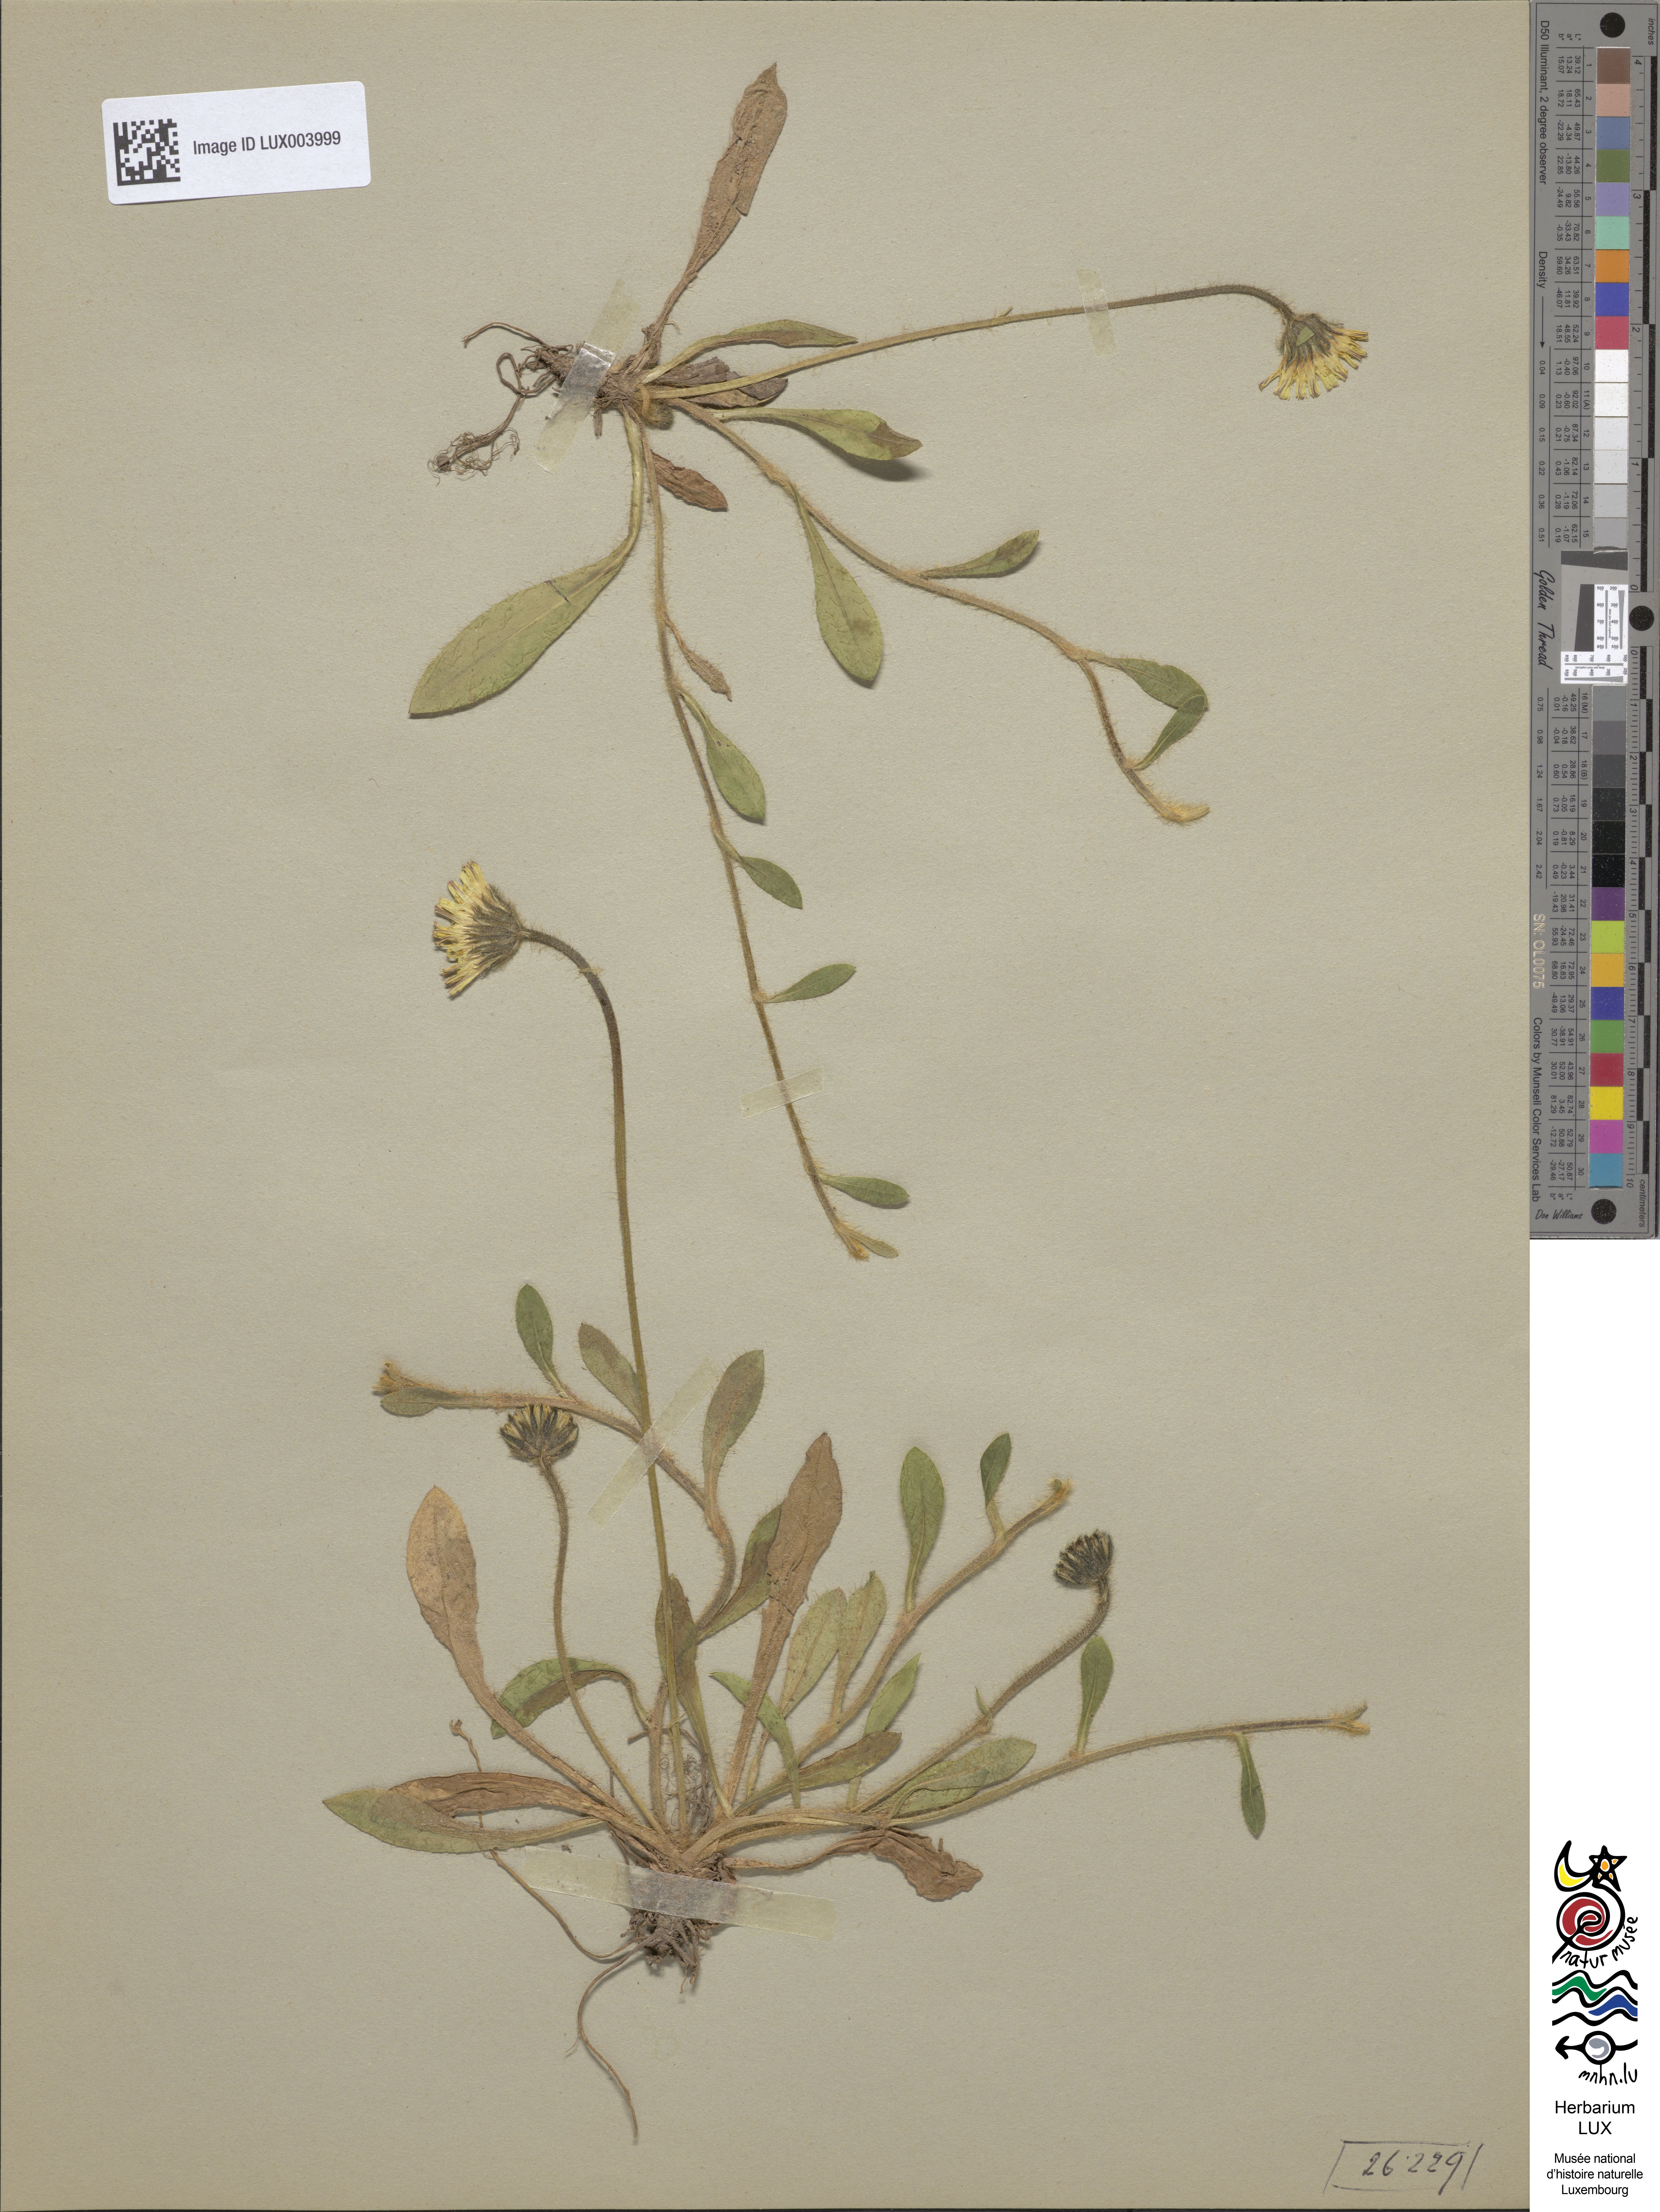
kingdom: Plantae
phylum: Tracheophyta
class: Magnoliopsida
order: Asterales
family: Asteraceae
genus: Pilosella
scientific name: Pilosella officinarum
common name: Mouse-ear hawkweed
